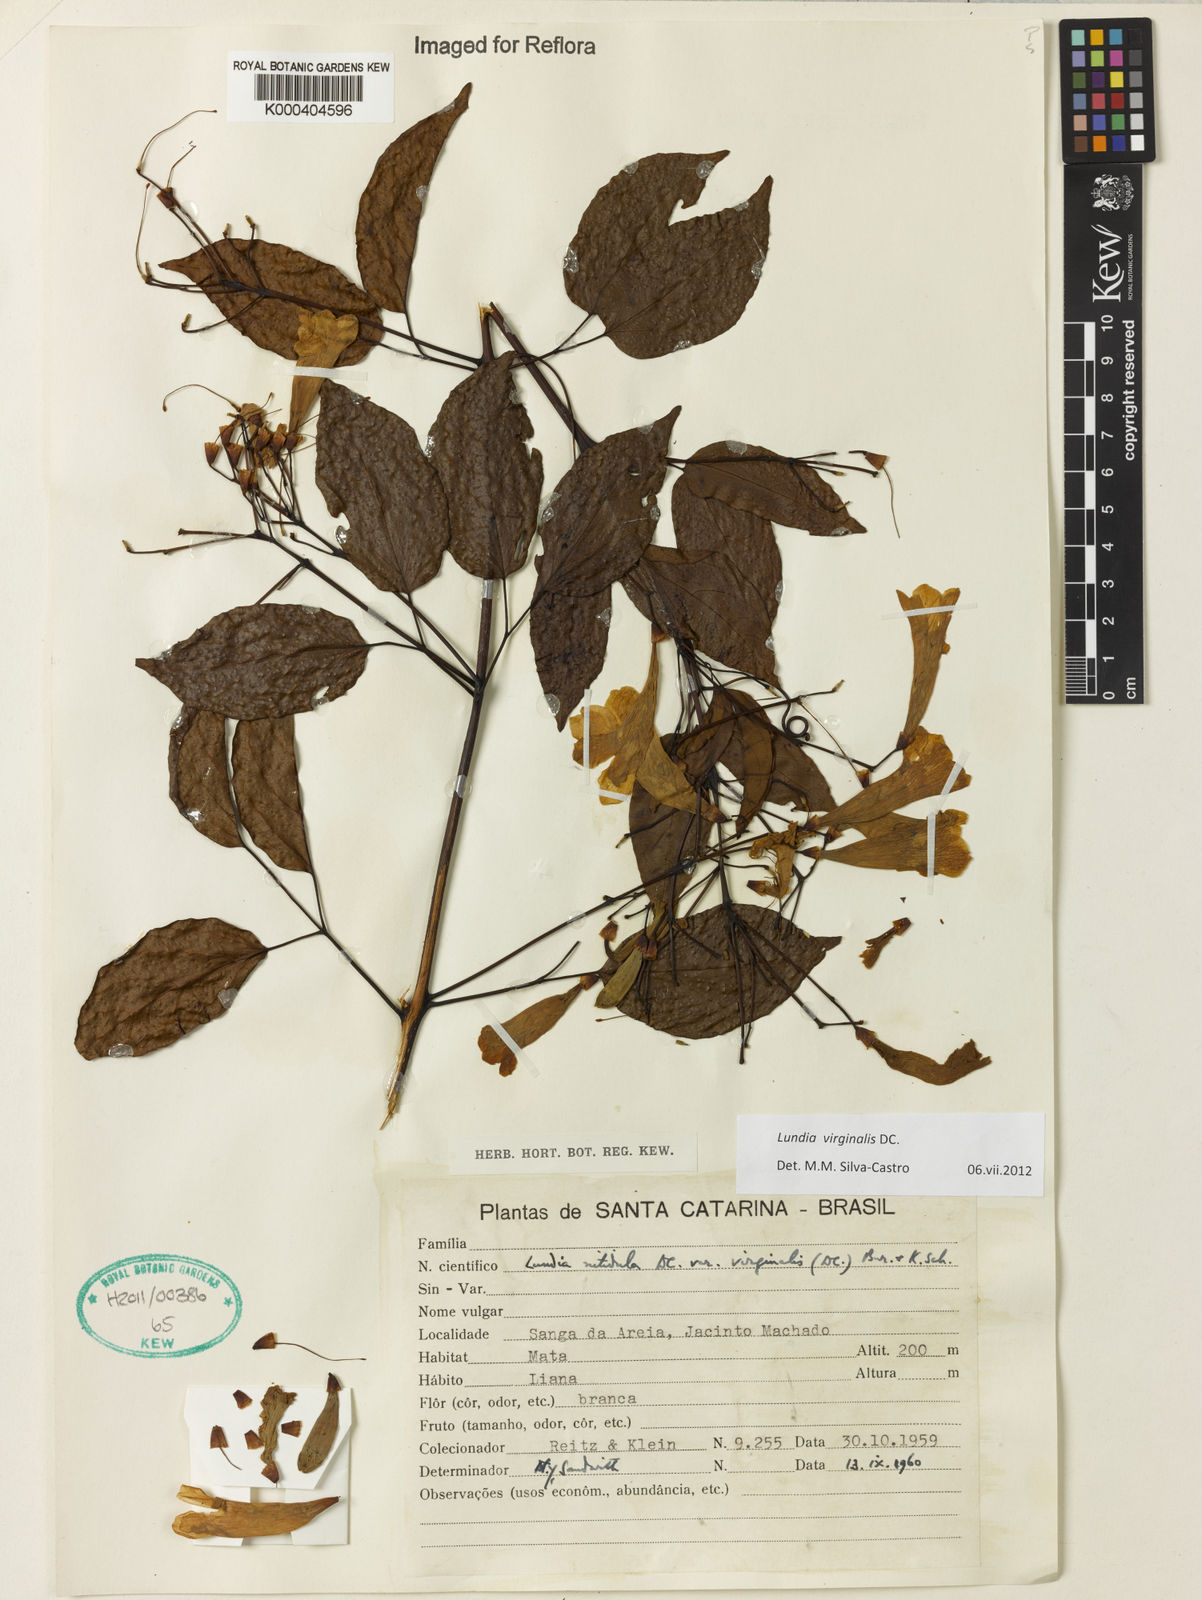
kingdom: Plantae
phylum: Tracheophyta
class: Magnoliopsida
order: Lamiales
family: Bignoniaceae
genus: Lundia
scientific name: Lundia virginalis
